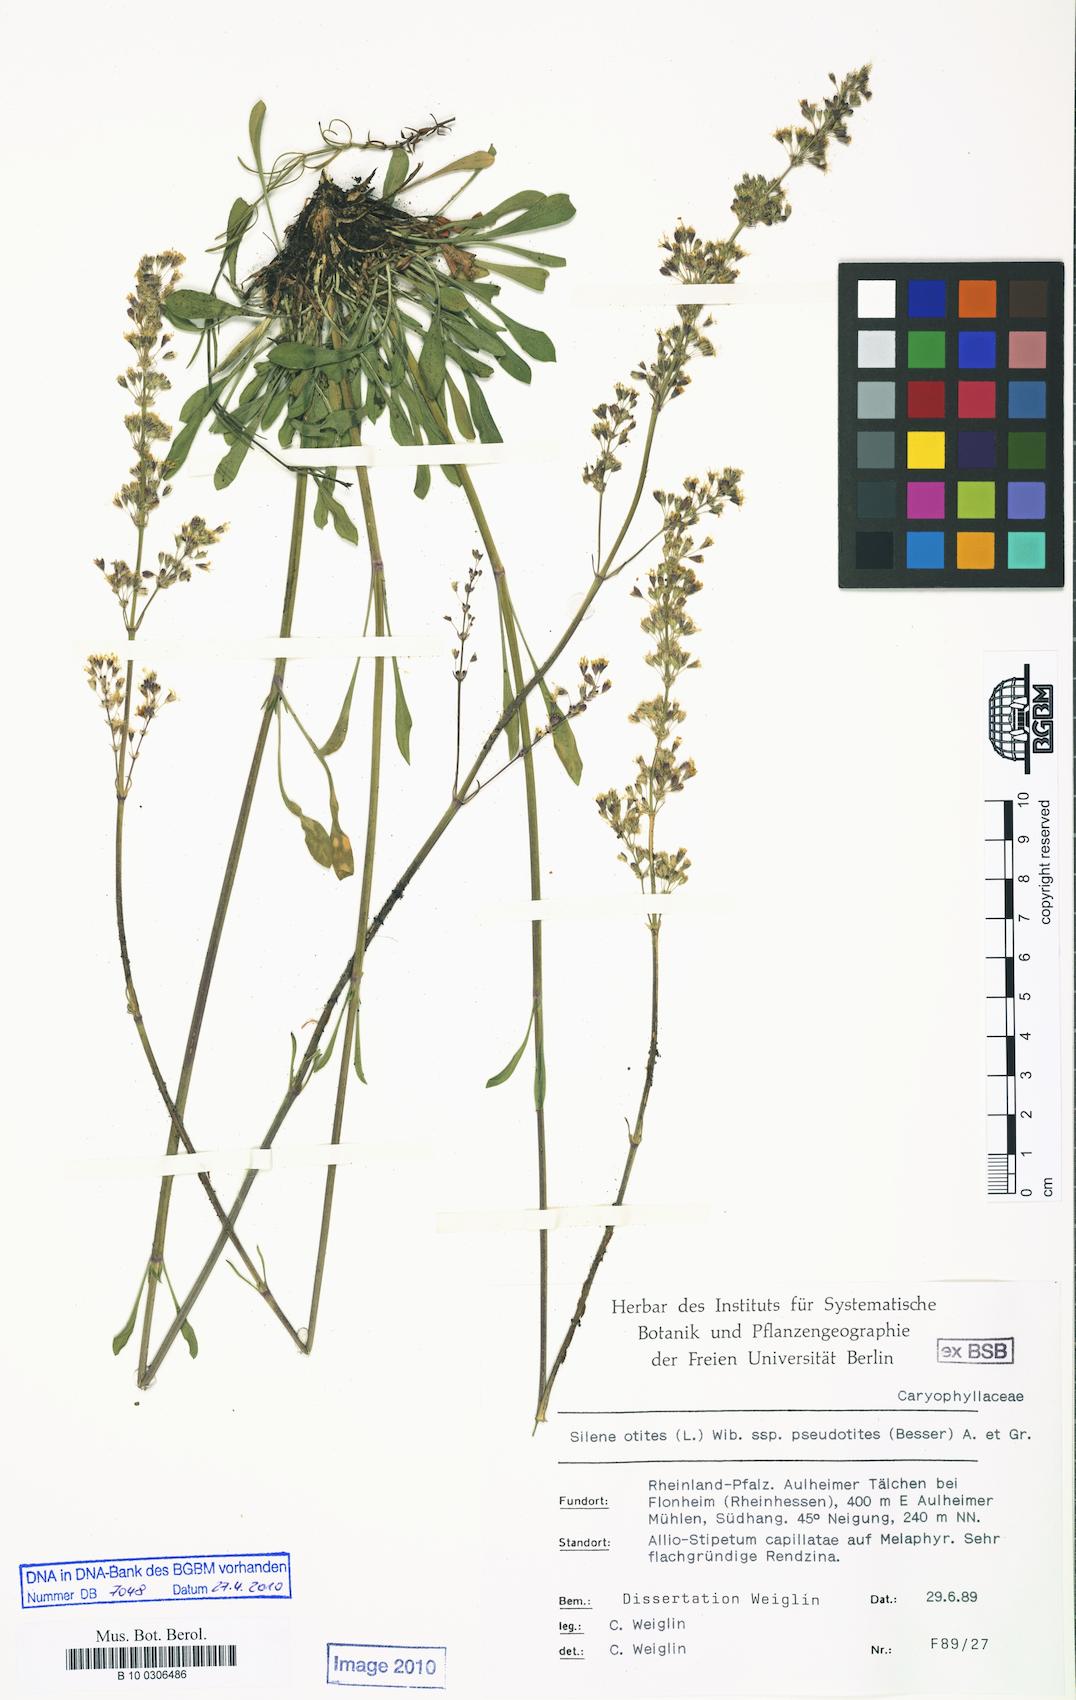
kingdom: Plantae
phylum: Tracheophyta
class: Magnoliopsida
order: Caryophyllales
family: Caryophyllaceae
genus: Silene
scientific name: Silene pseudotites
